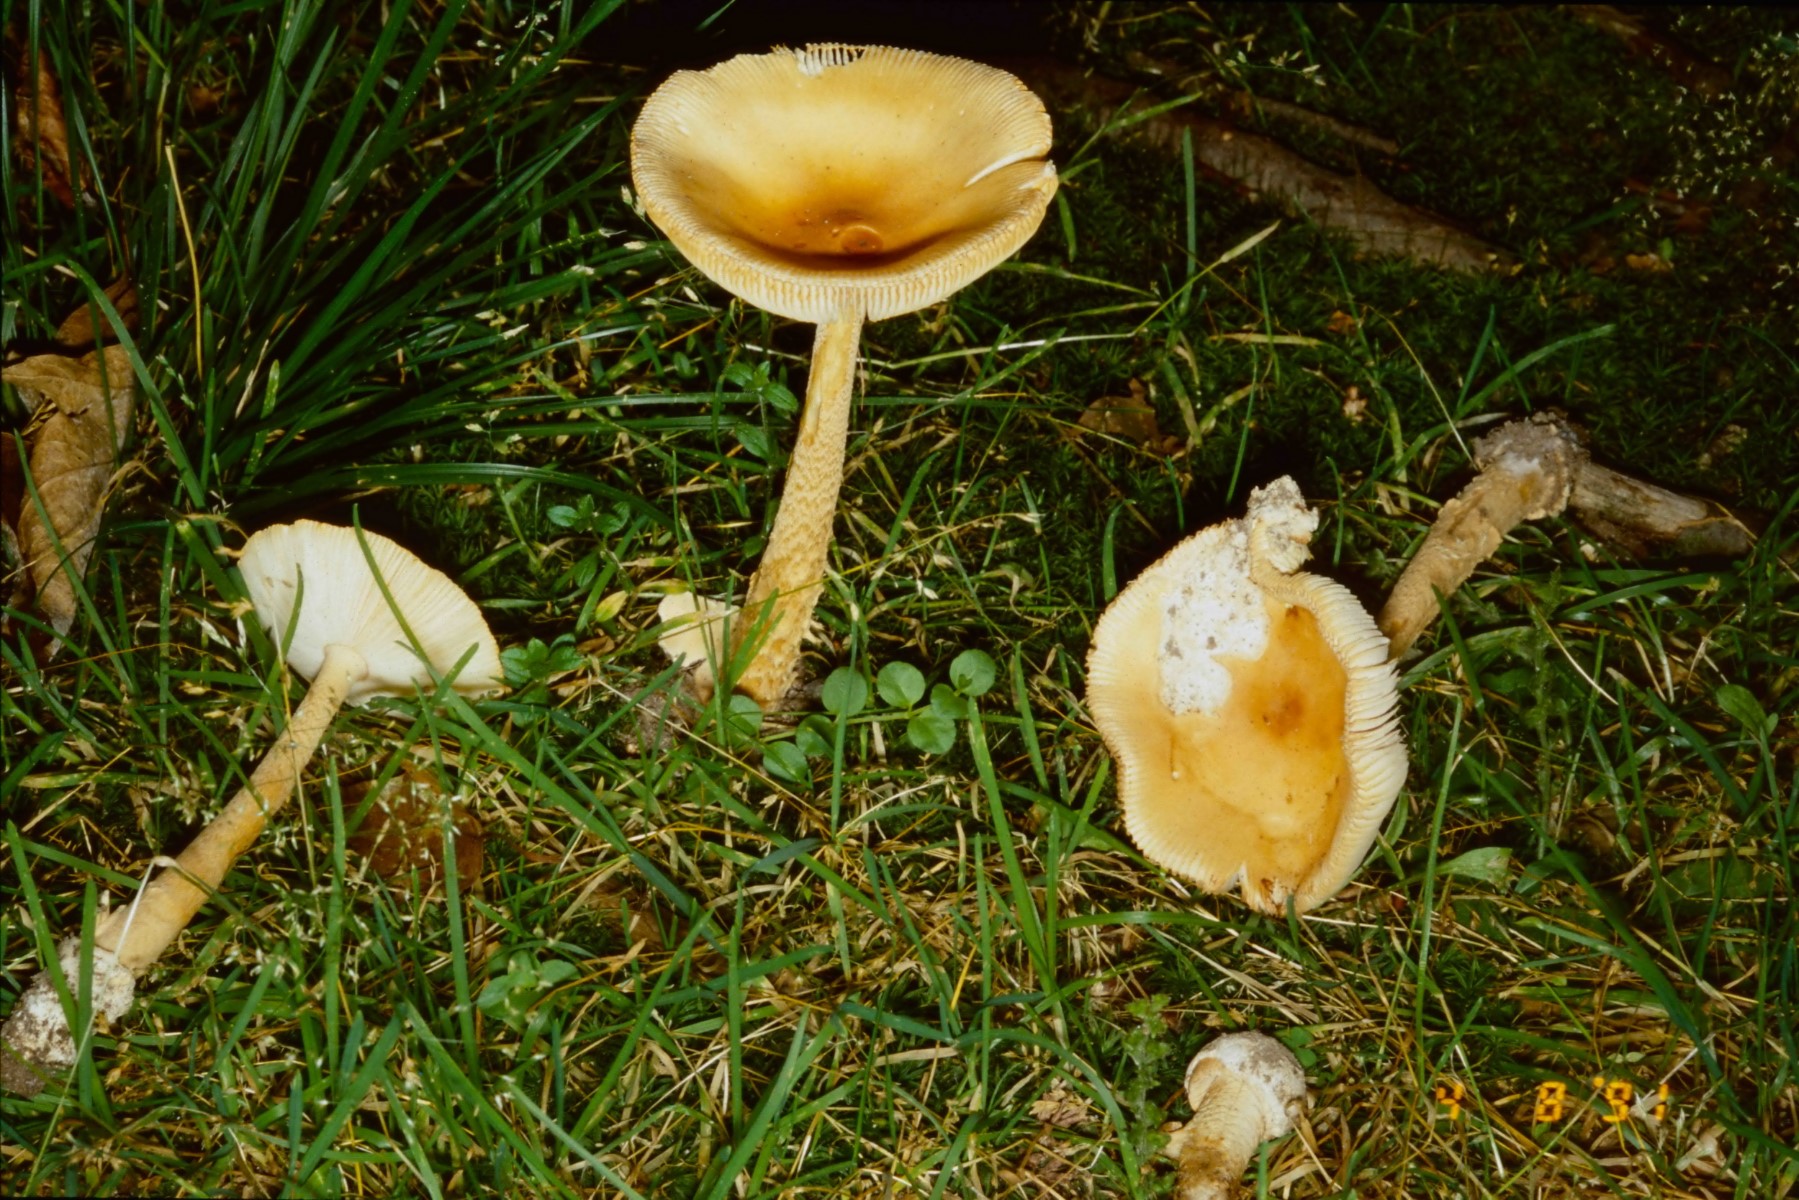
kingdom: Fungi
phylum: Basidiomycota
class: Agaricomycetes
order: Agaricales
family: Amanitaceae
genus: Amanita
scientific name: Amanita crocea
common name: gylden kam-fluesvamp
